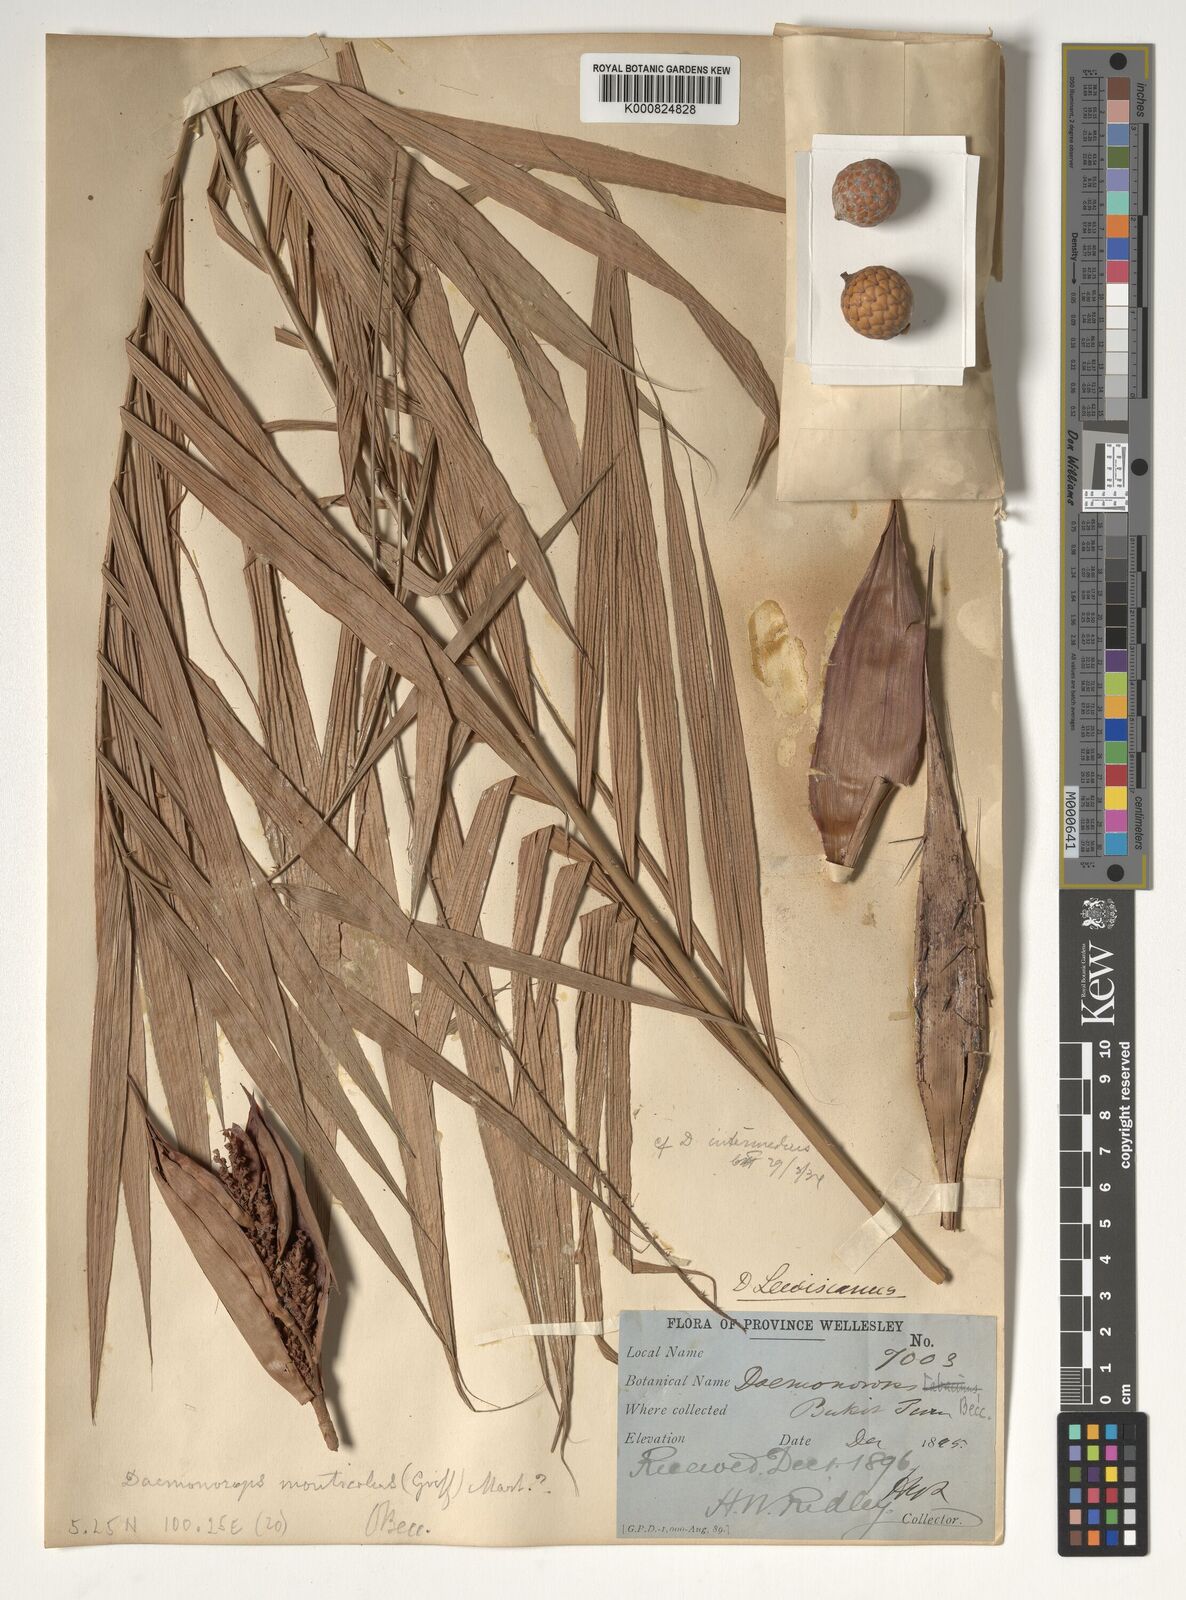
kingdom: Plantae
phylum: Tracheophyta
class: Liliopsida
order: Arecales
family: Arecaceae
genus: Calamus
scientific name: Calamus melanochaetes
